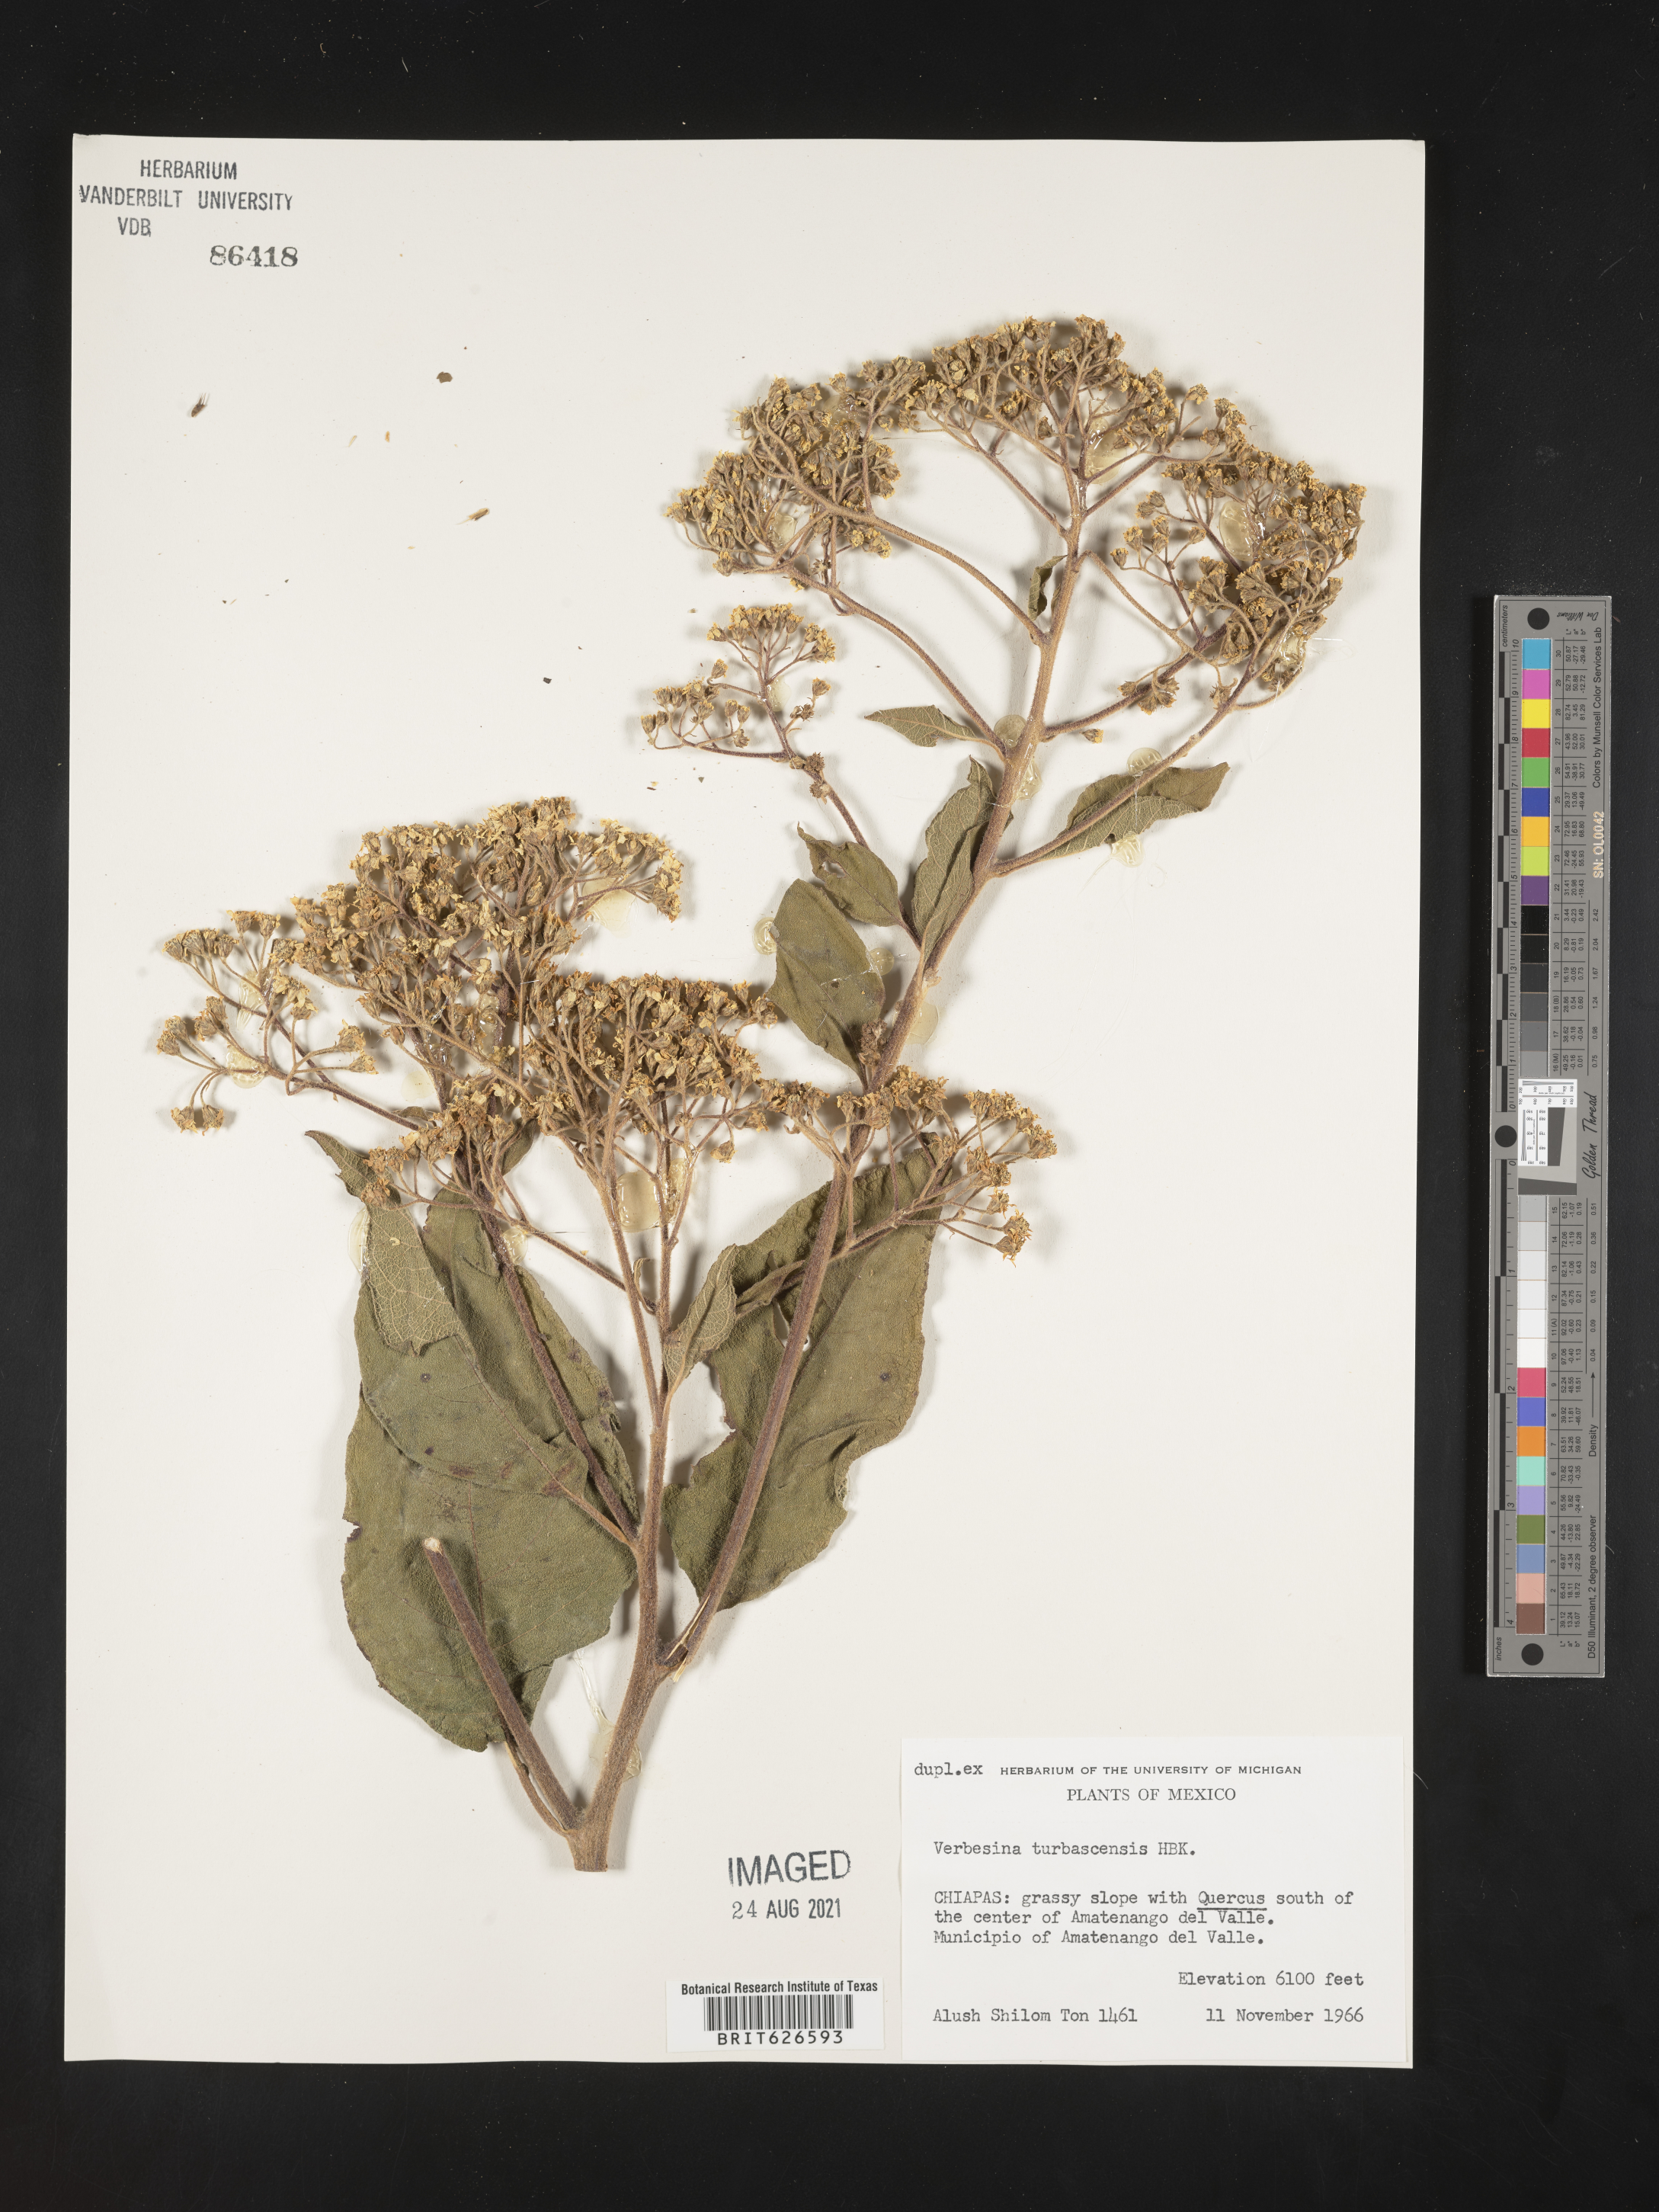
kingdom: Plantae
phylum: Tracheophyta
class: Magnoliopsida
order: Asterales
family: Asteraceae
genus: Verbesina
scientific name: Verbesina turbacensis
